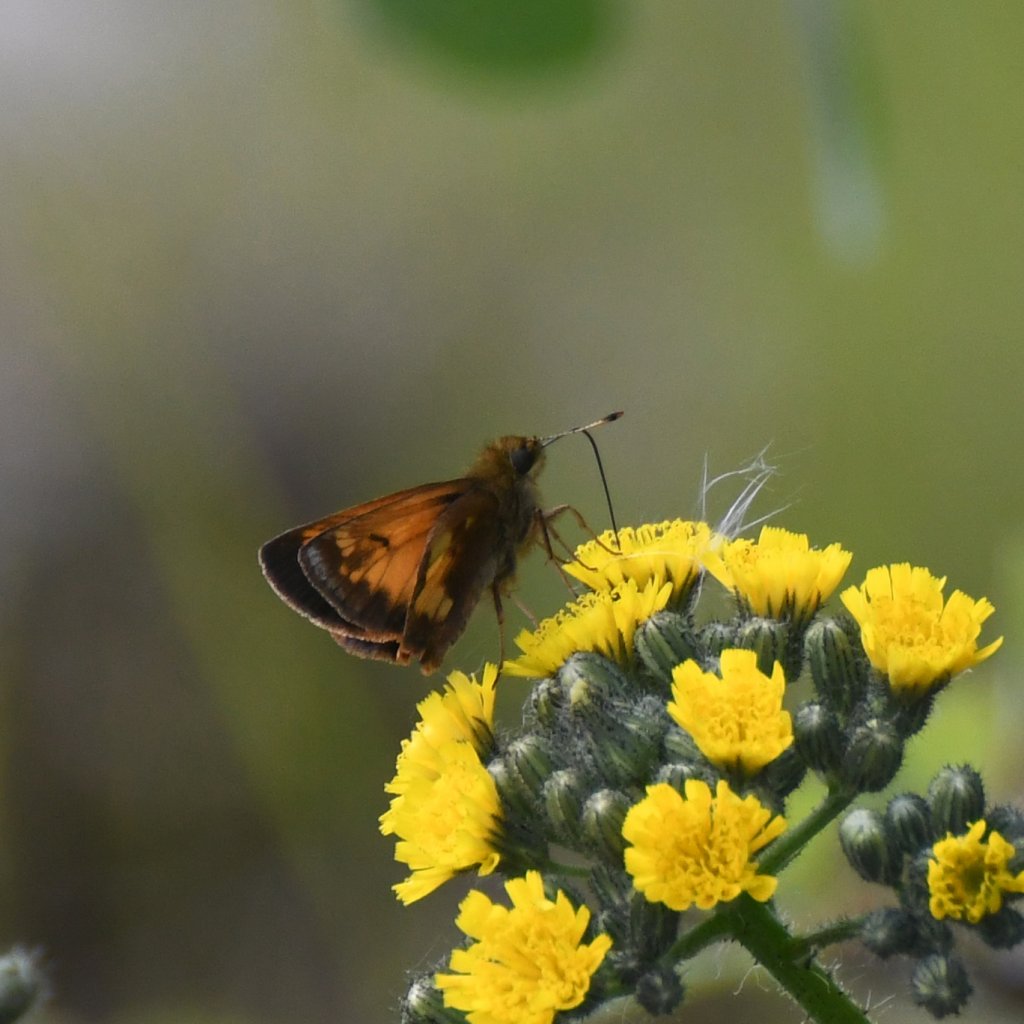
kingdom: Animalia
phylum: Arthropoda
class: Insecta
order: Lepidoptera
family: Hesperiidae
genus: Lon
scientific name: Lon hobomok
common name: Hobomok Skipper
